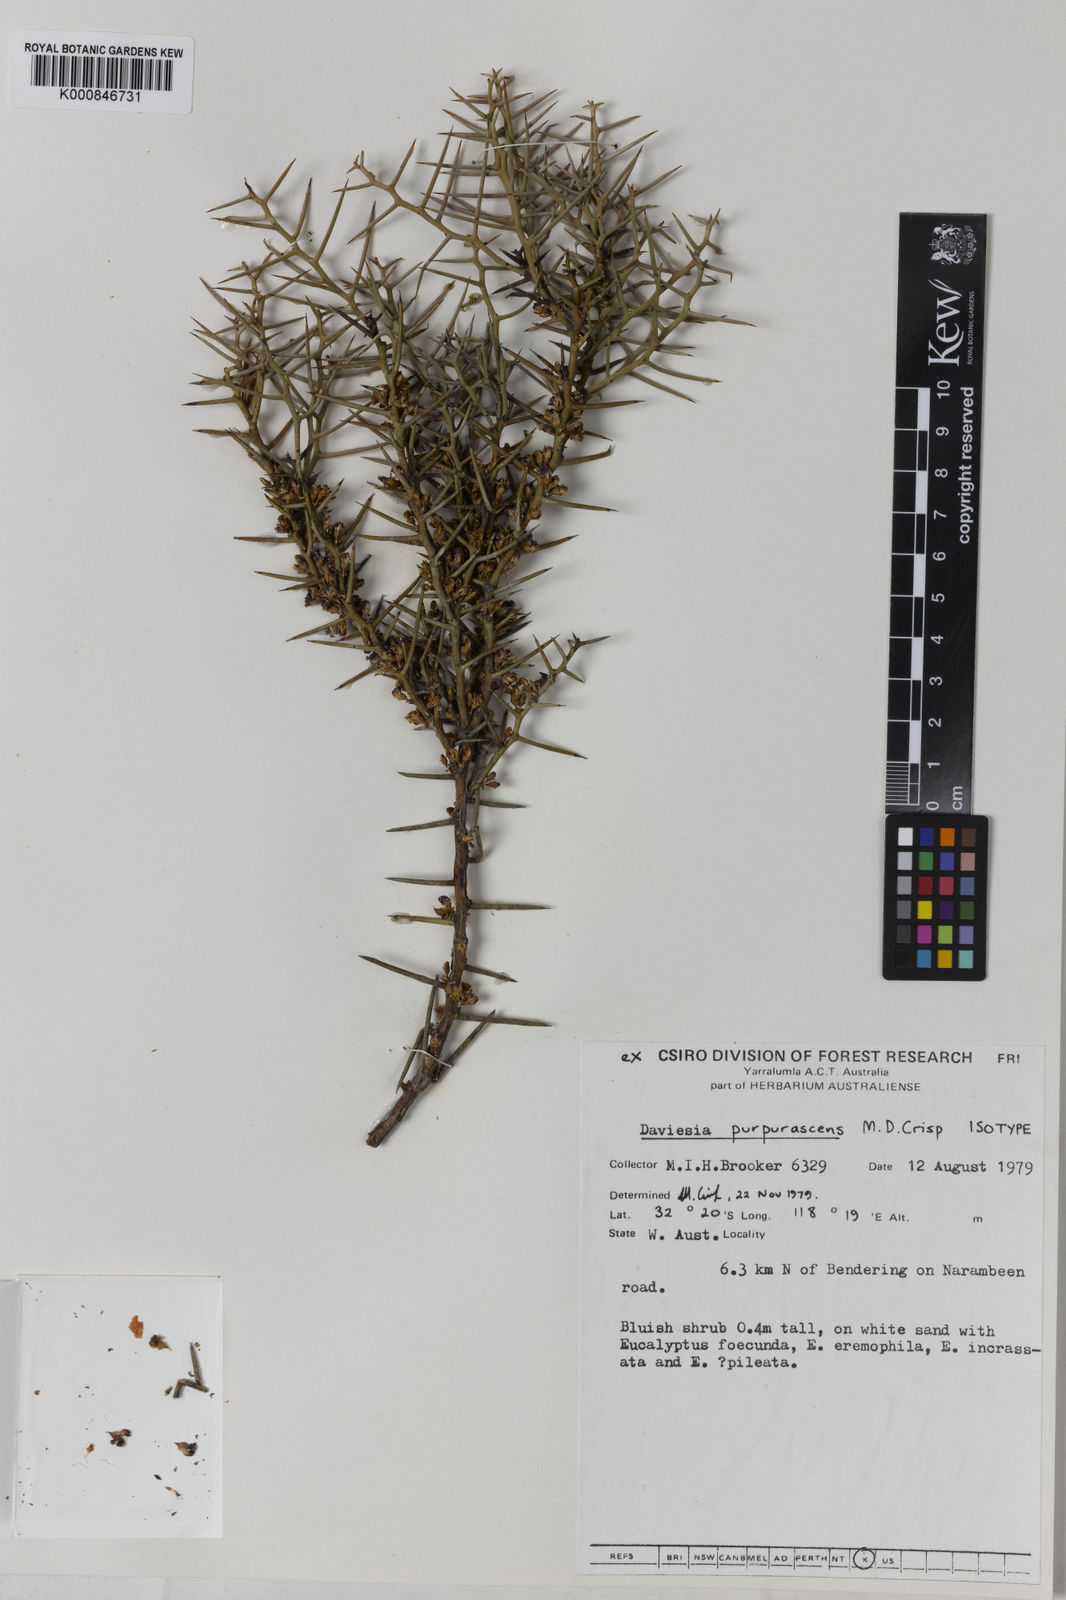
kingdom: Plantae
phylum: Tracheophyta
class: Magnoliopsida
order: Fabales
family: Fabaceae
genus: Daviesia
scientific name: Daviesia purpurascens
